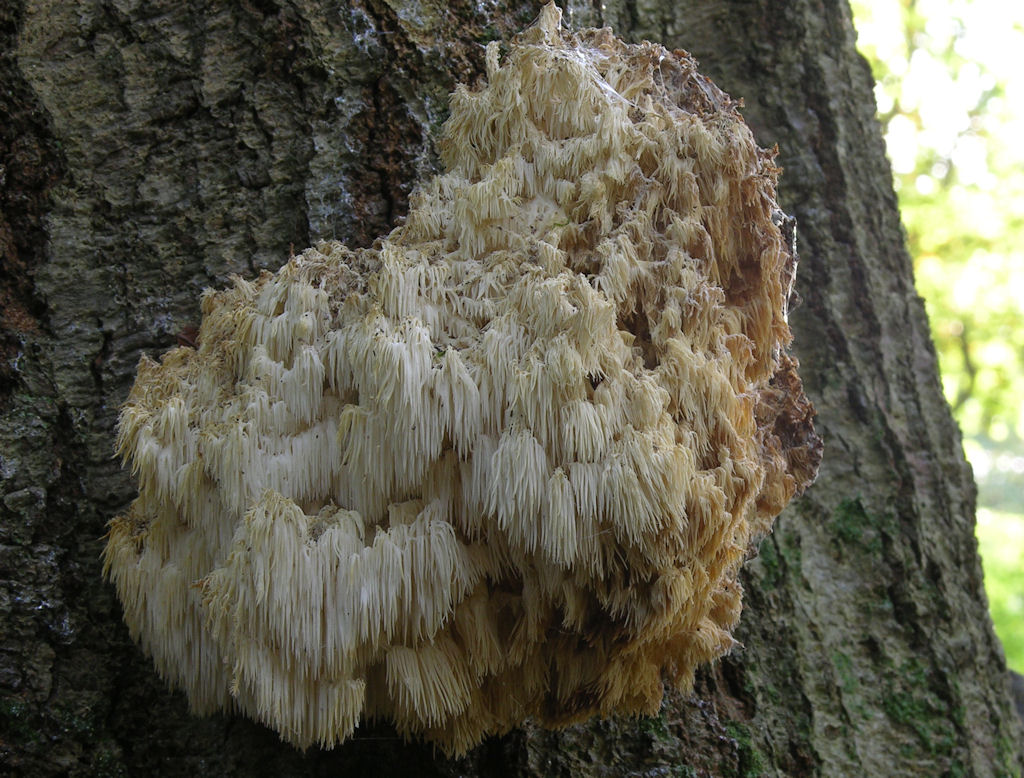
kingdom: Fungi
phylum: Basidiomycota
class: Agaricomycetes
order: Russulales
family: Hericiaceae
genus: Hericium
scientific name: Hericium coralloides
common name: koralpigsvamp
